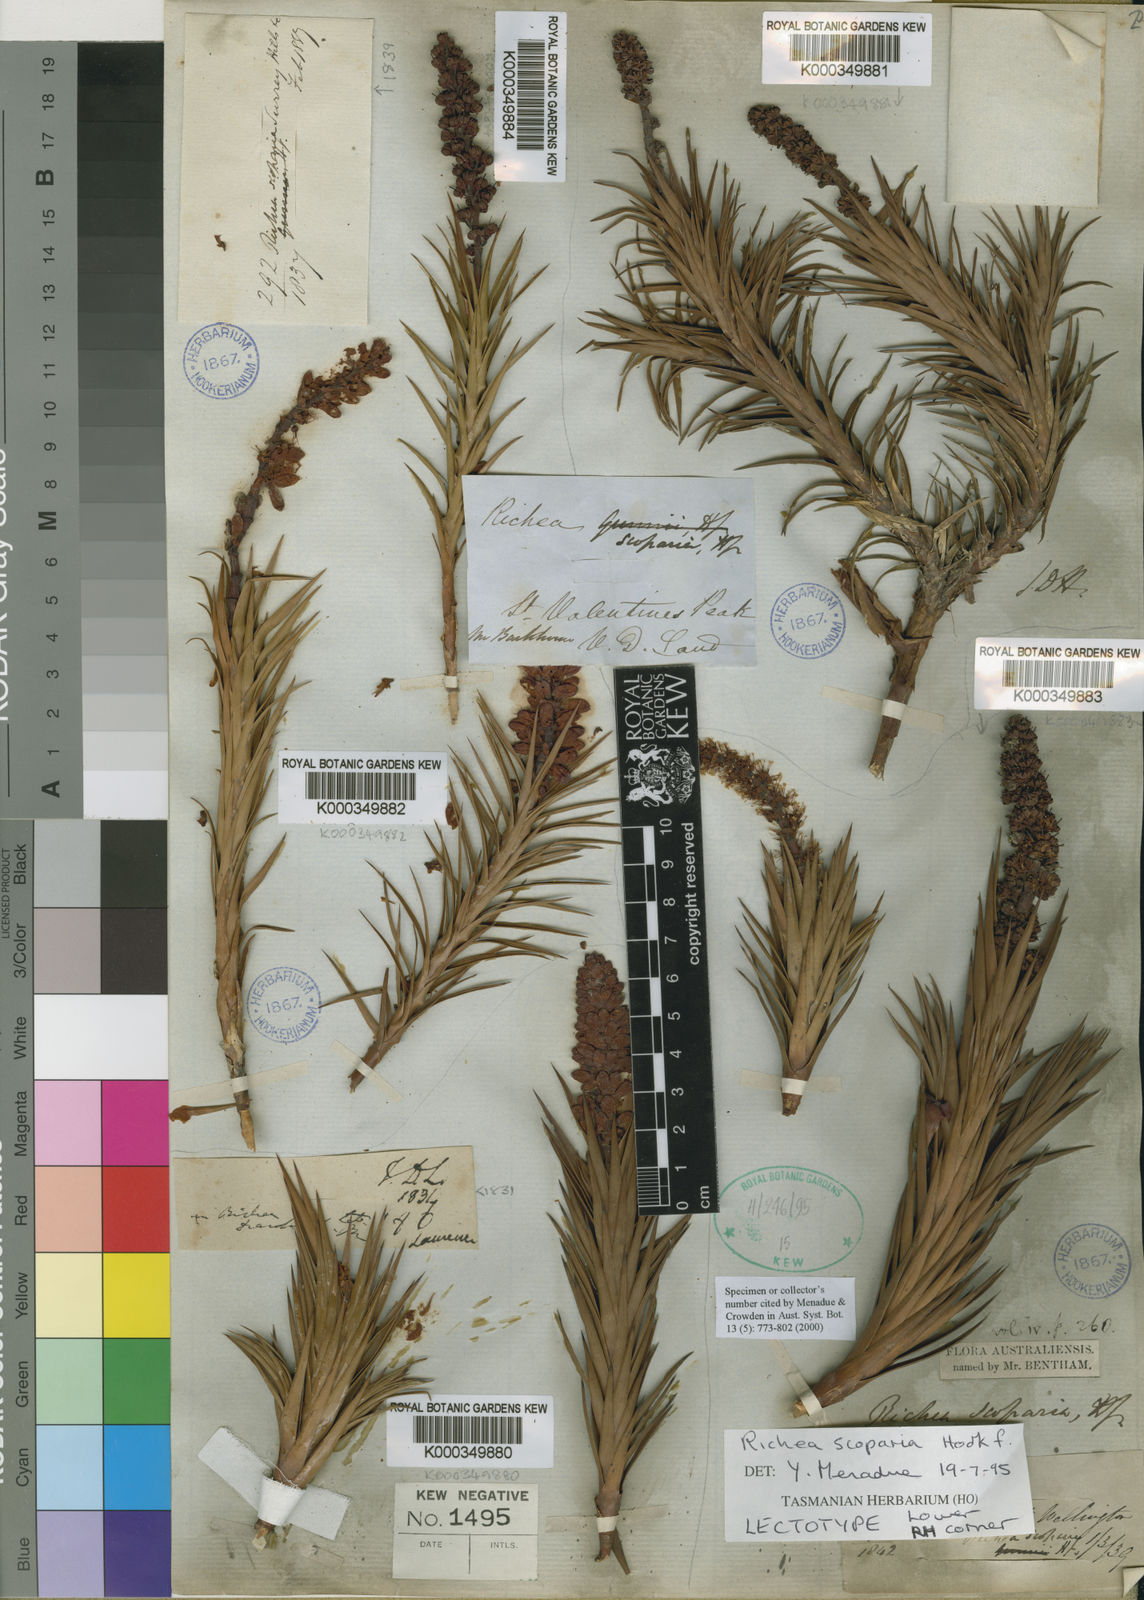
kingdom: Plantae
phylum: Tracheophyta
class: Magnoliopsida
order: Ericales
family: Ericaceae
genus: Dracophyllum
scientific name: Dracophyllum persistentifolium
